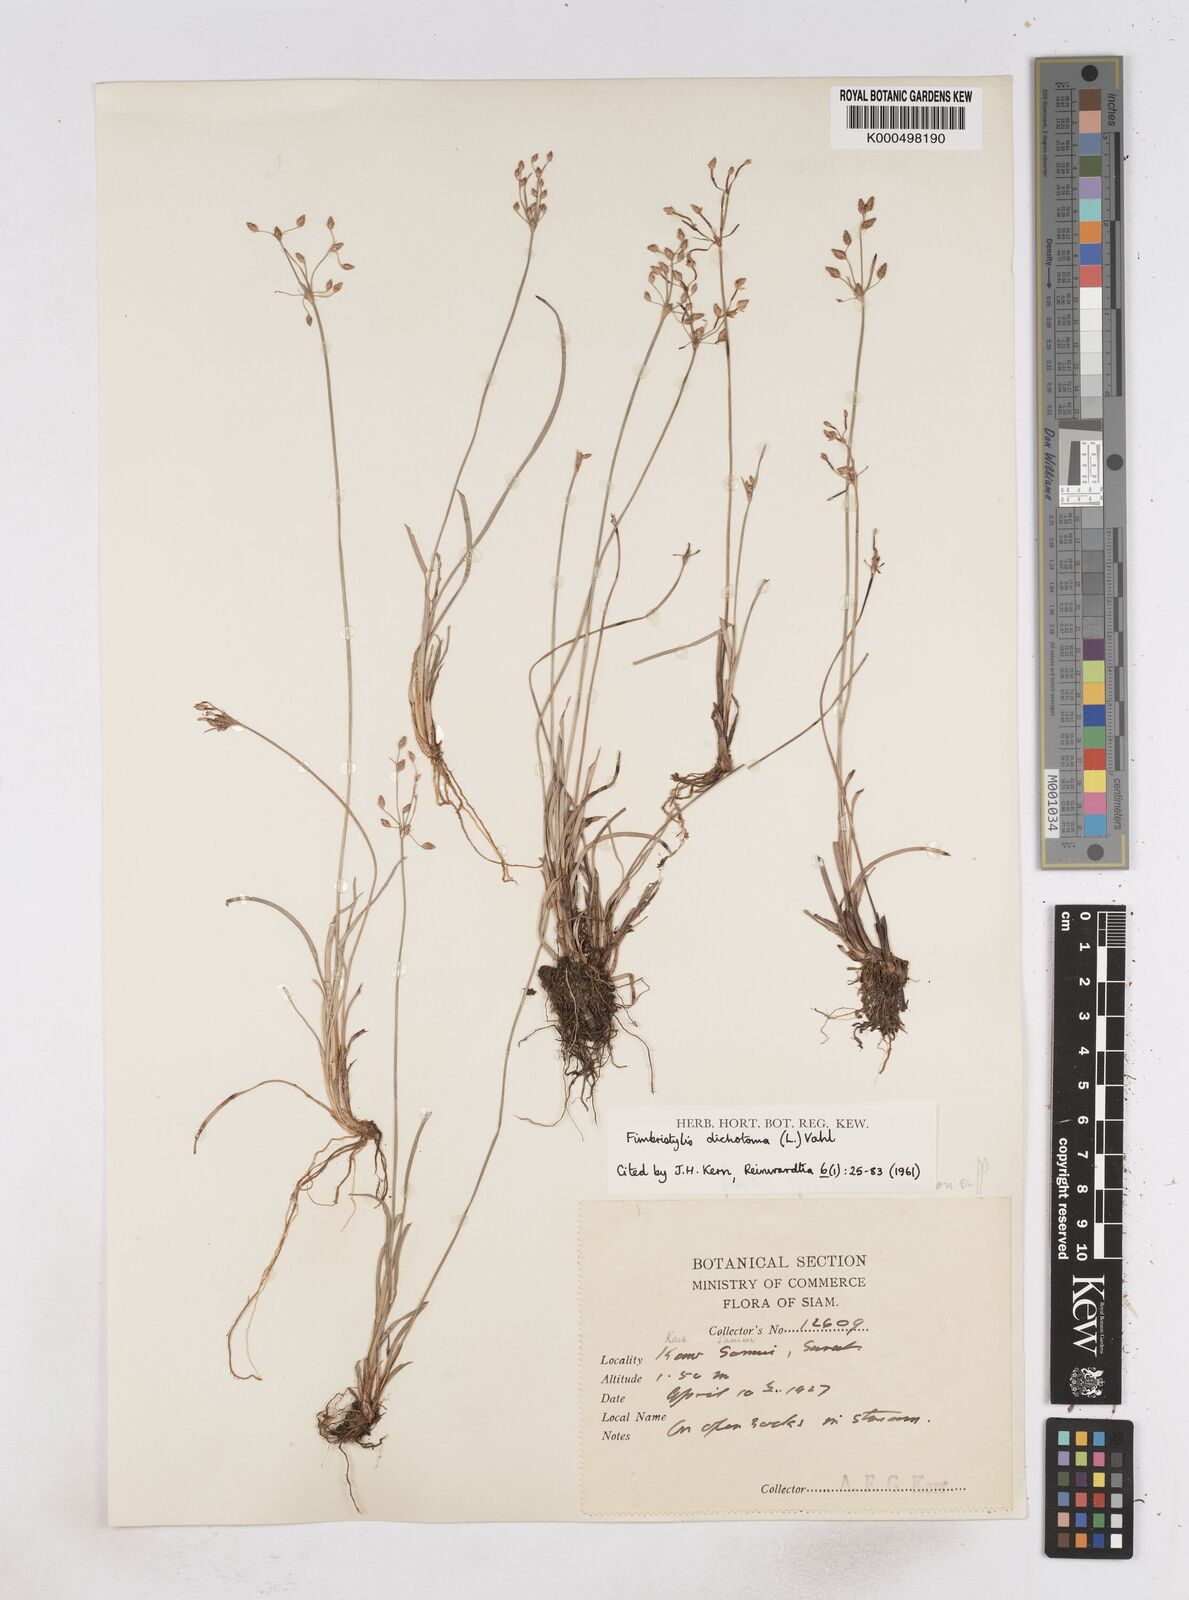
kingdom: Plantae
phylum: Tracheophyta
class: Liliopsida
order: Poales
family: Cyperaceae
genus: Fimbristylis
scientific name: Fimbristylis dichotoma
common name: Forked fimbry
